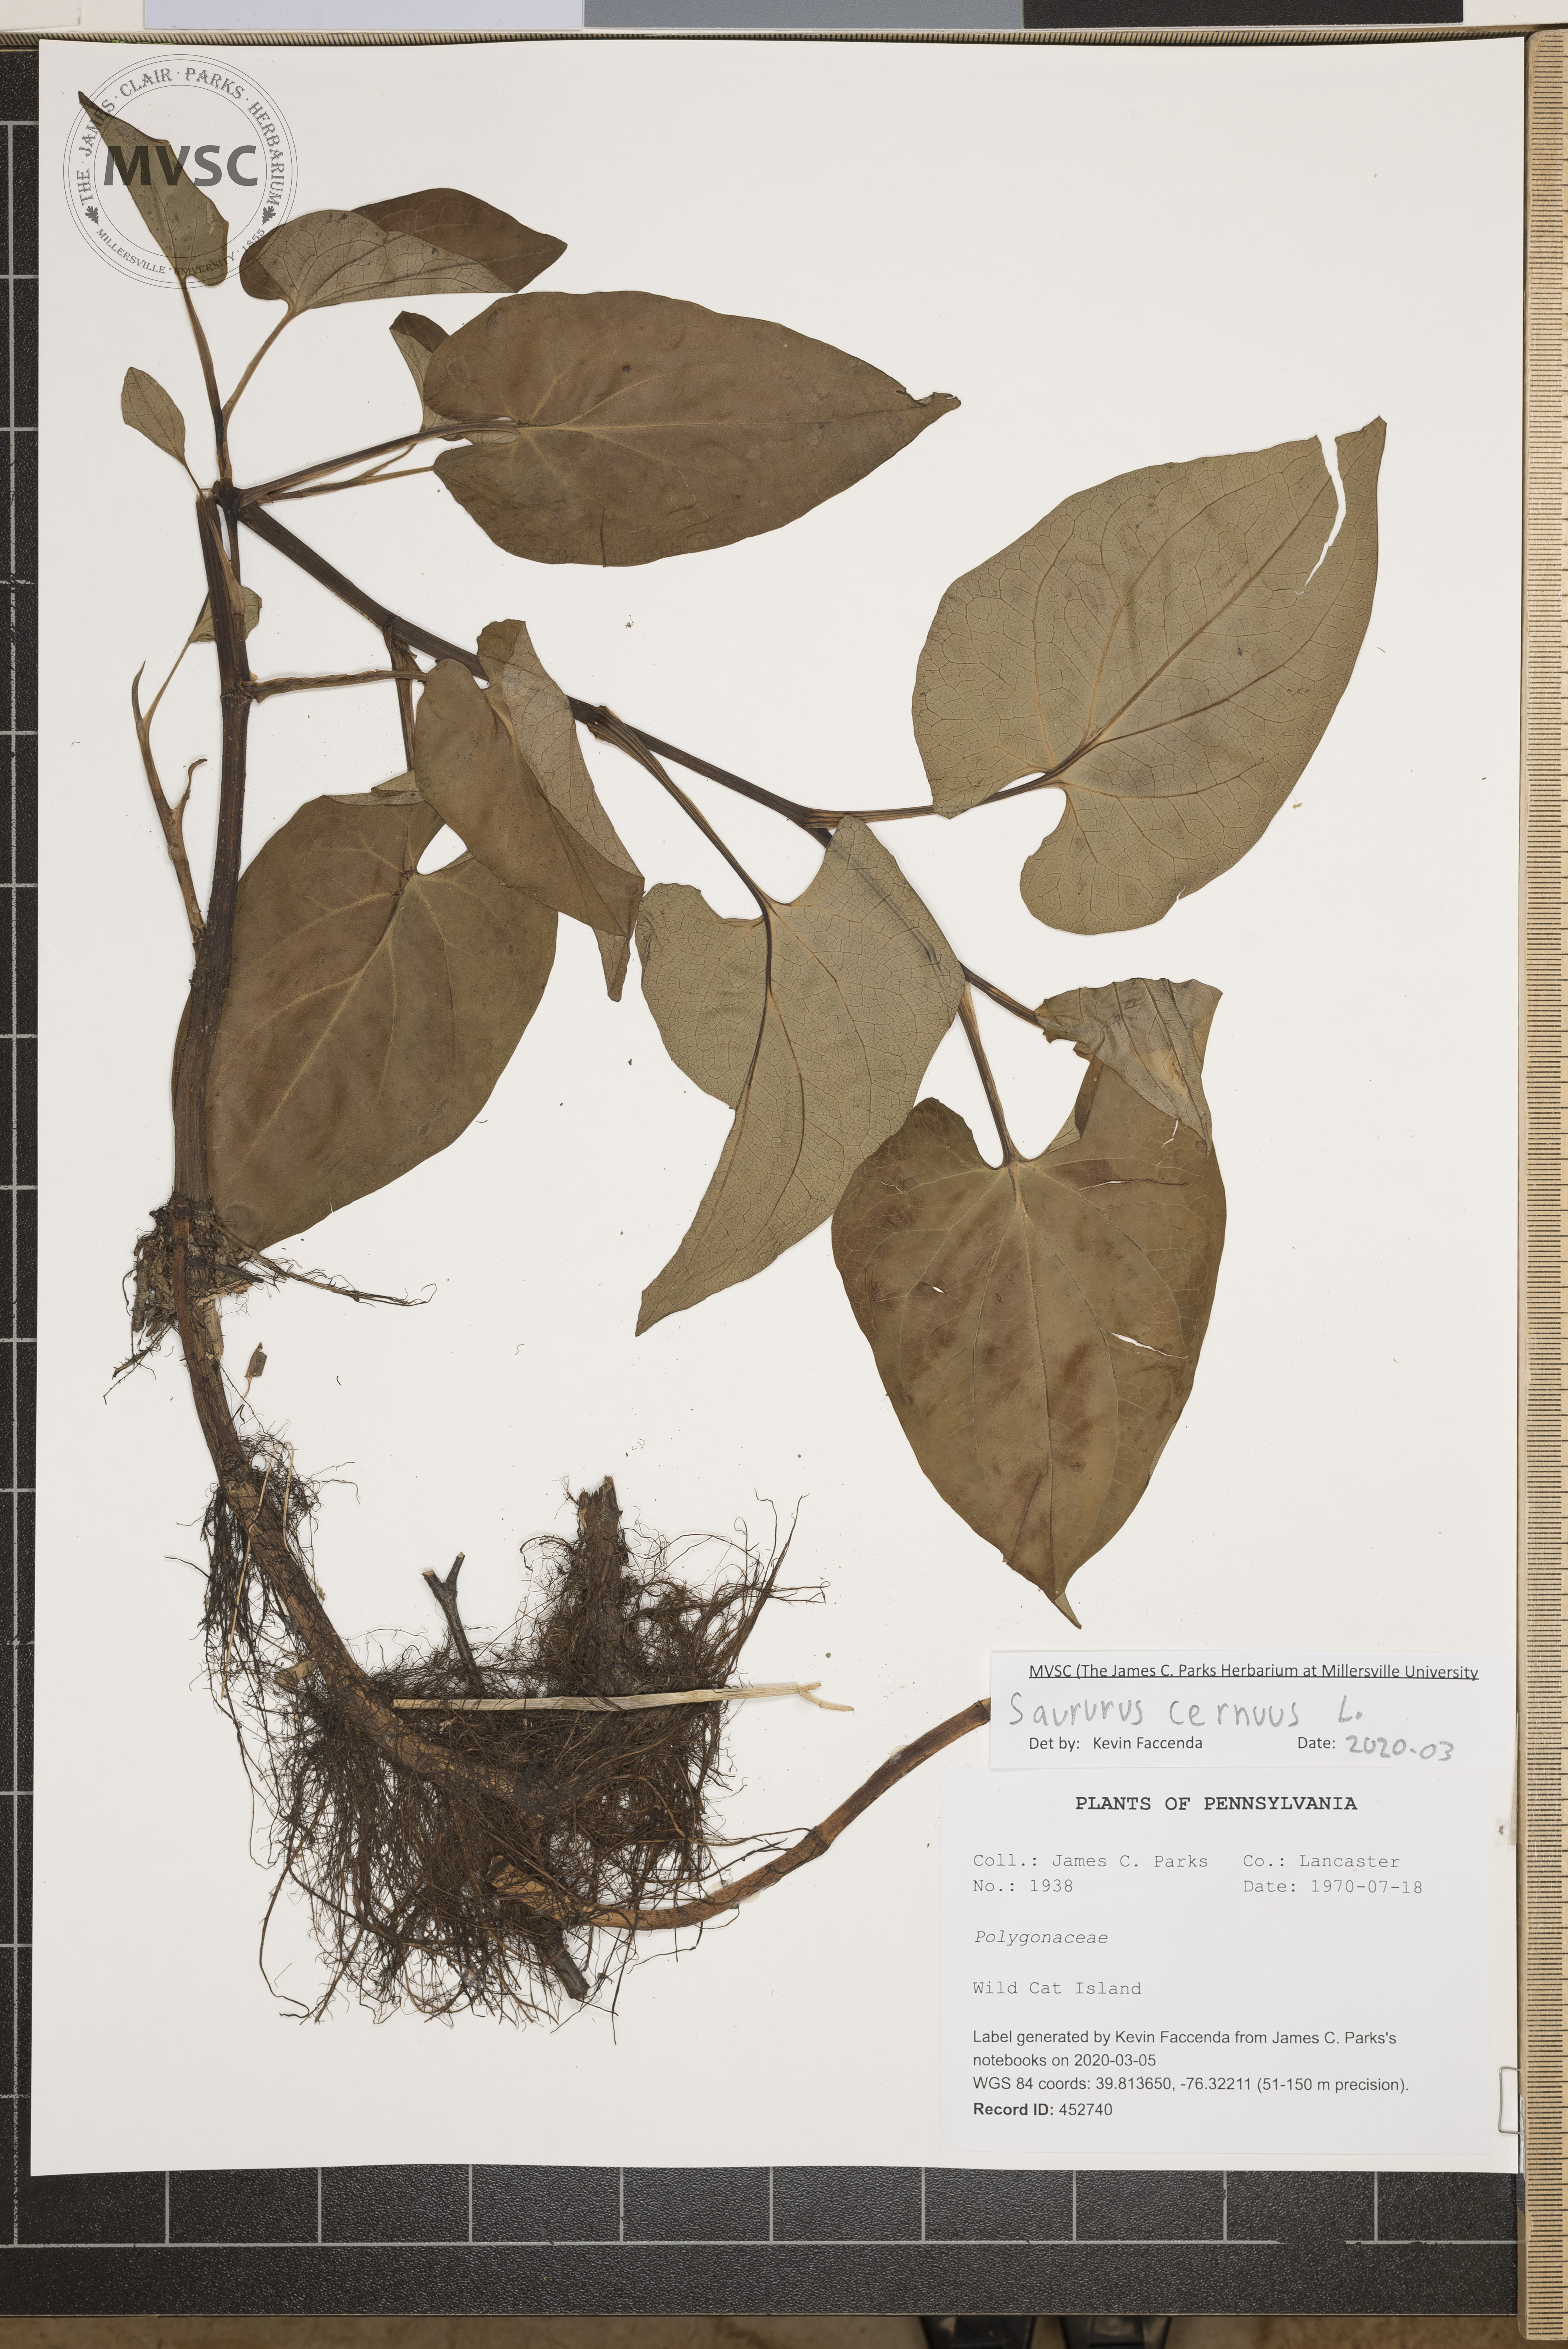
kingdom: Plantae
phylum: Tracheophyta
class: Magnoliopsida
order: Piperales
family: Saururaceae
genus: Saururus
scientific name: Saururus cernuus
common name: Lizard's-tail
